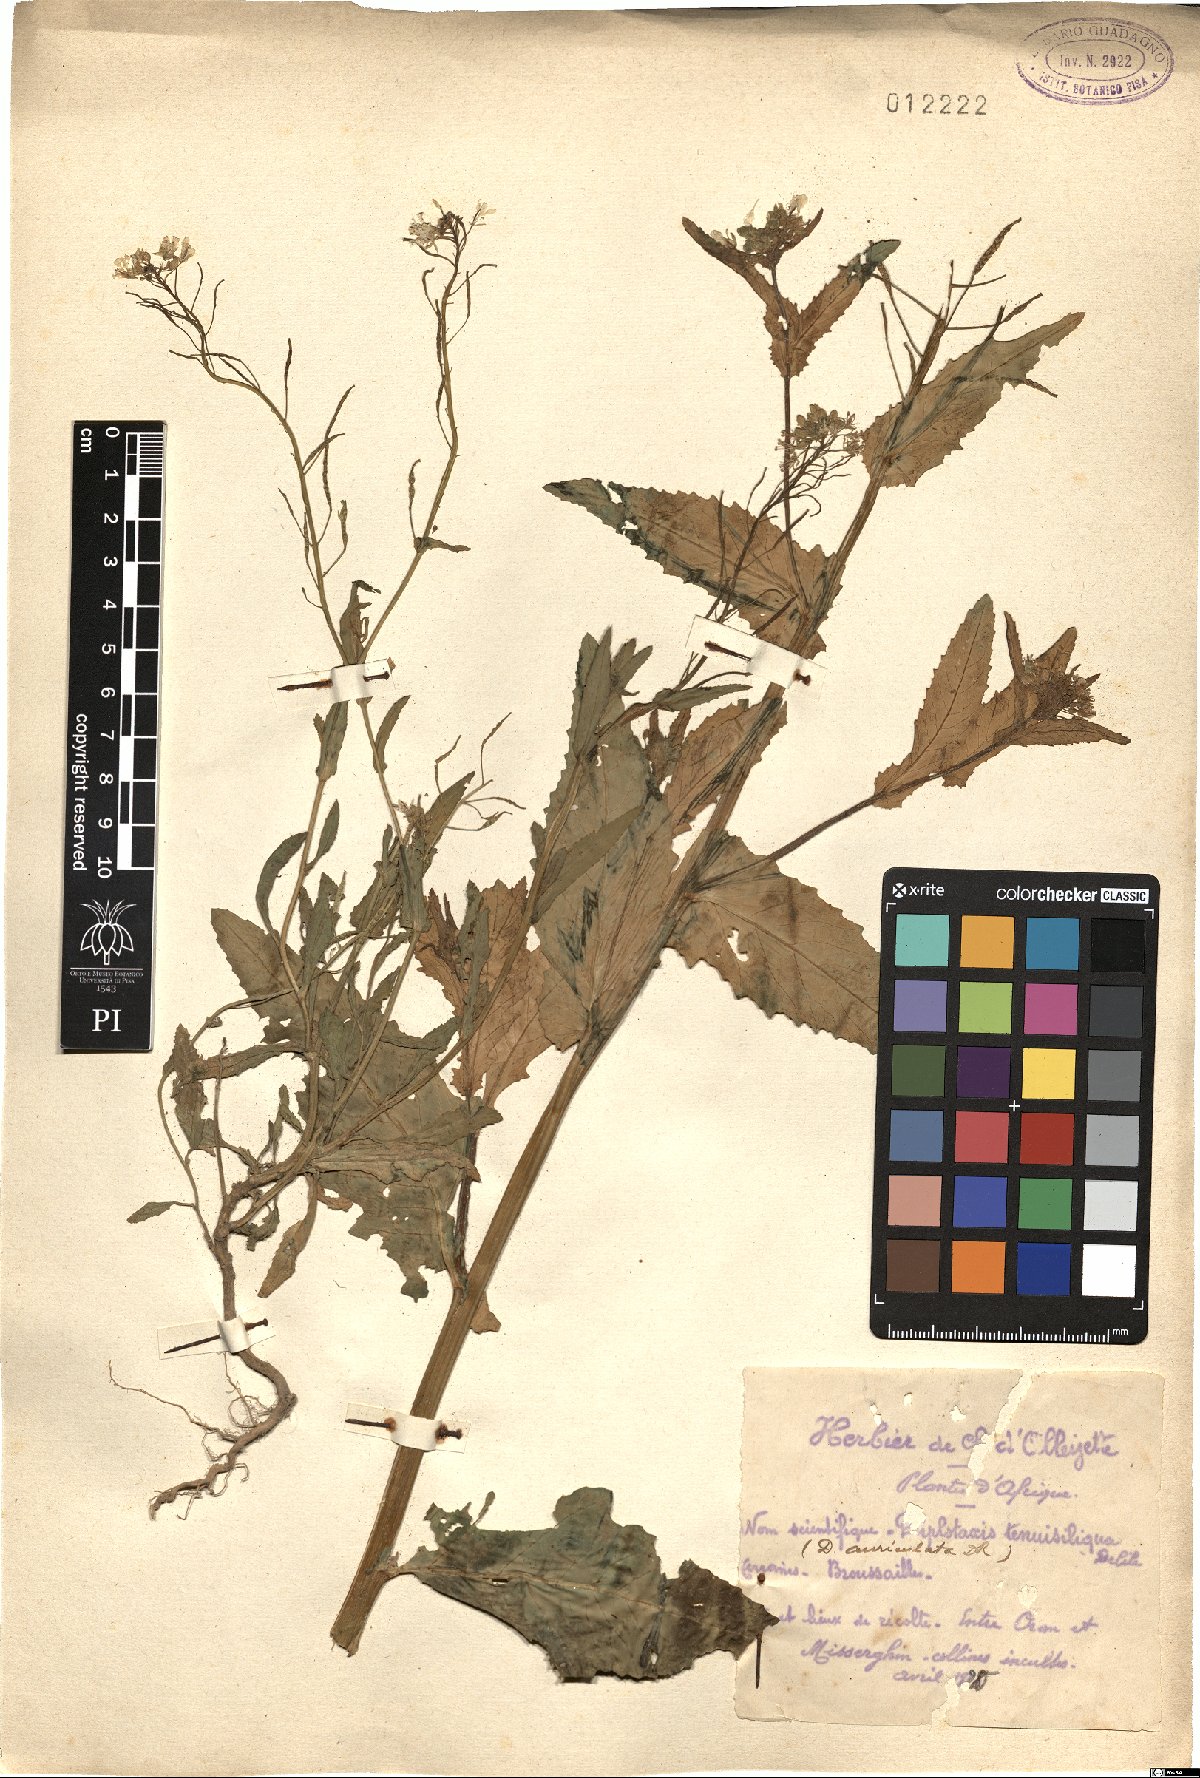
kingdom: Plantae
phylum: Tracheophyta
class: Magnoliopsida
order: Brassicales
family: Brassicaceae
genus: Diplotaxis
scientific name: Diplotaxis tenuisiliqua
